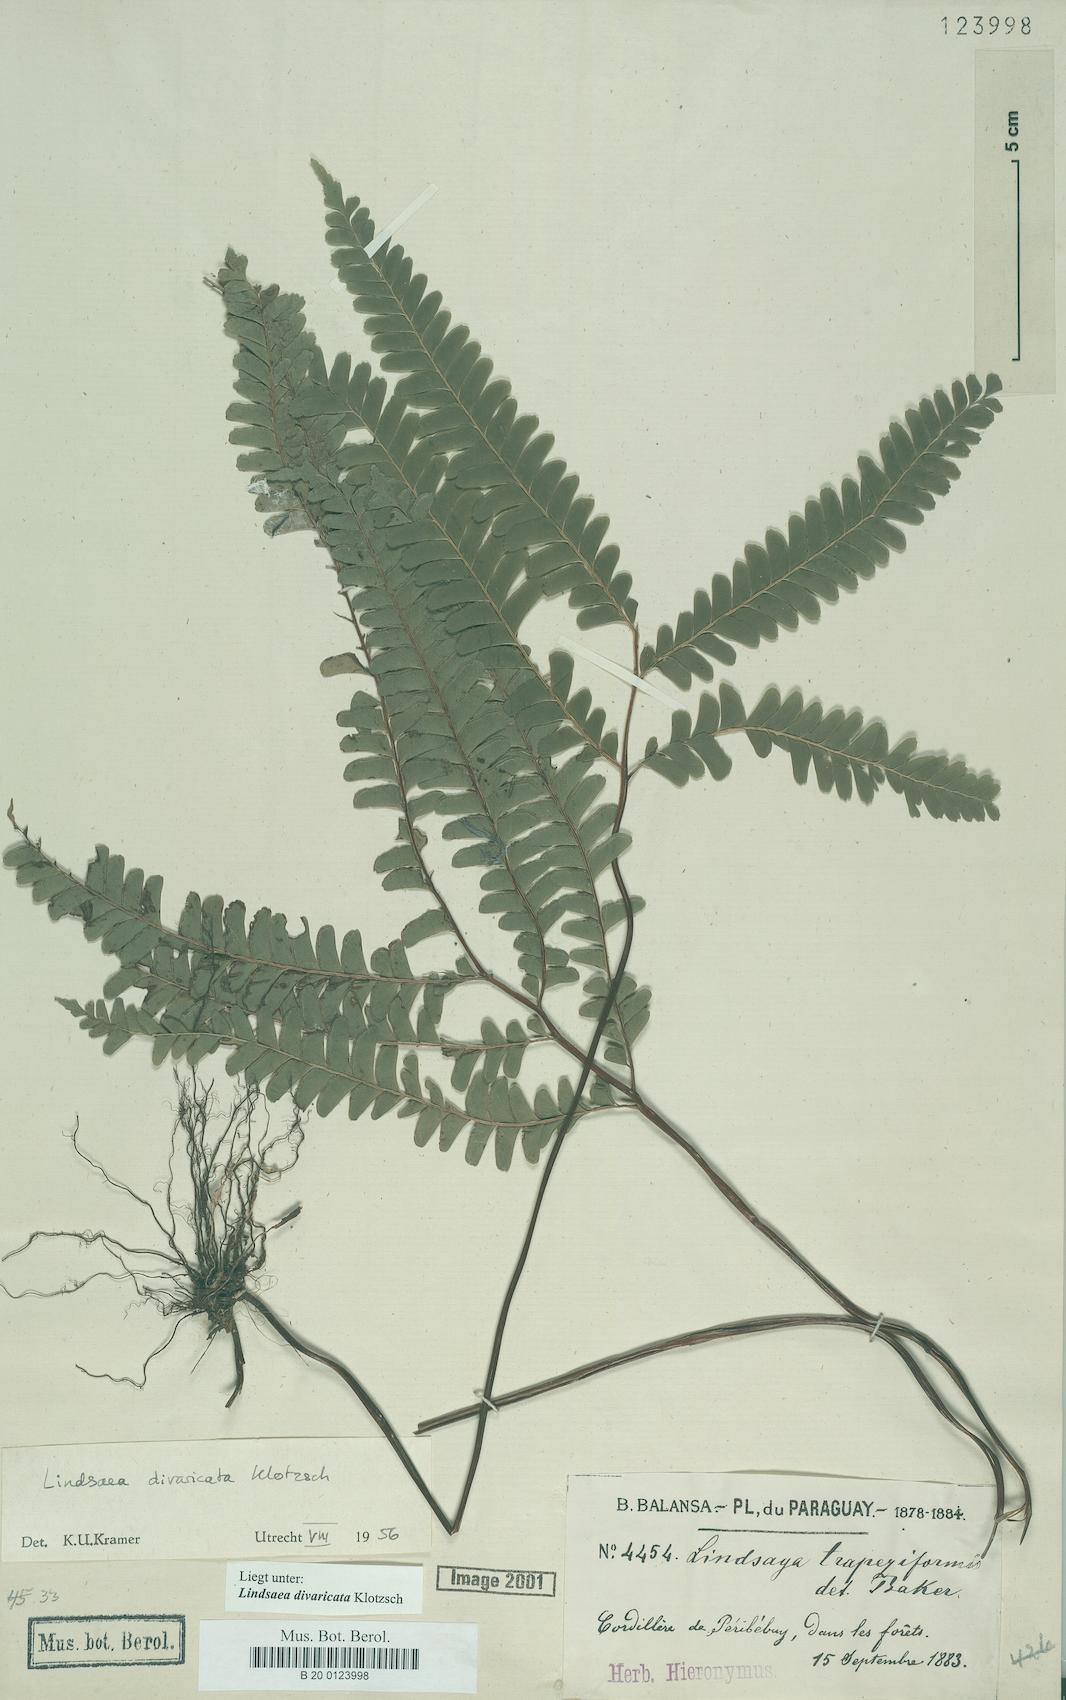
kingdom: Plantae
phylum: Tracheophyta
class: Polypodiopsida
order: Polypodiales
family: Lindsaeaceae
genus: Lindsaea
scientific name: Lindsaea divaricata
